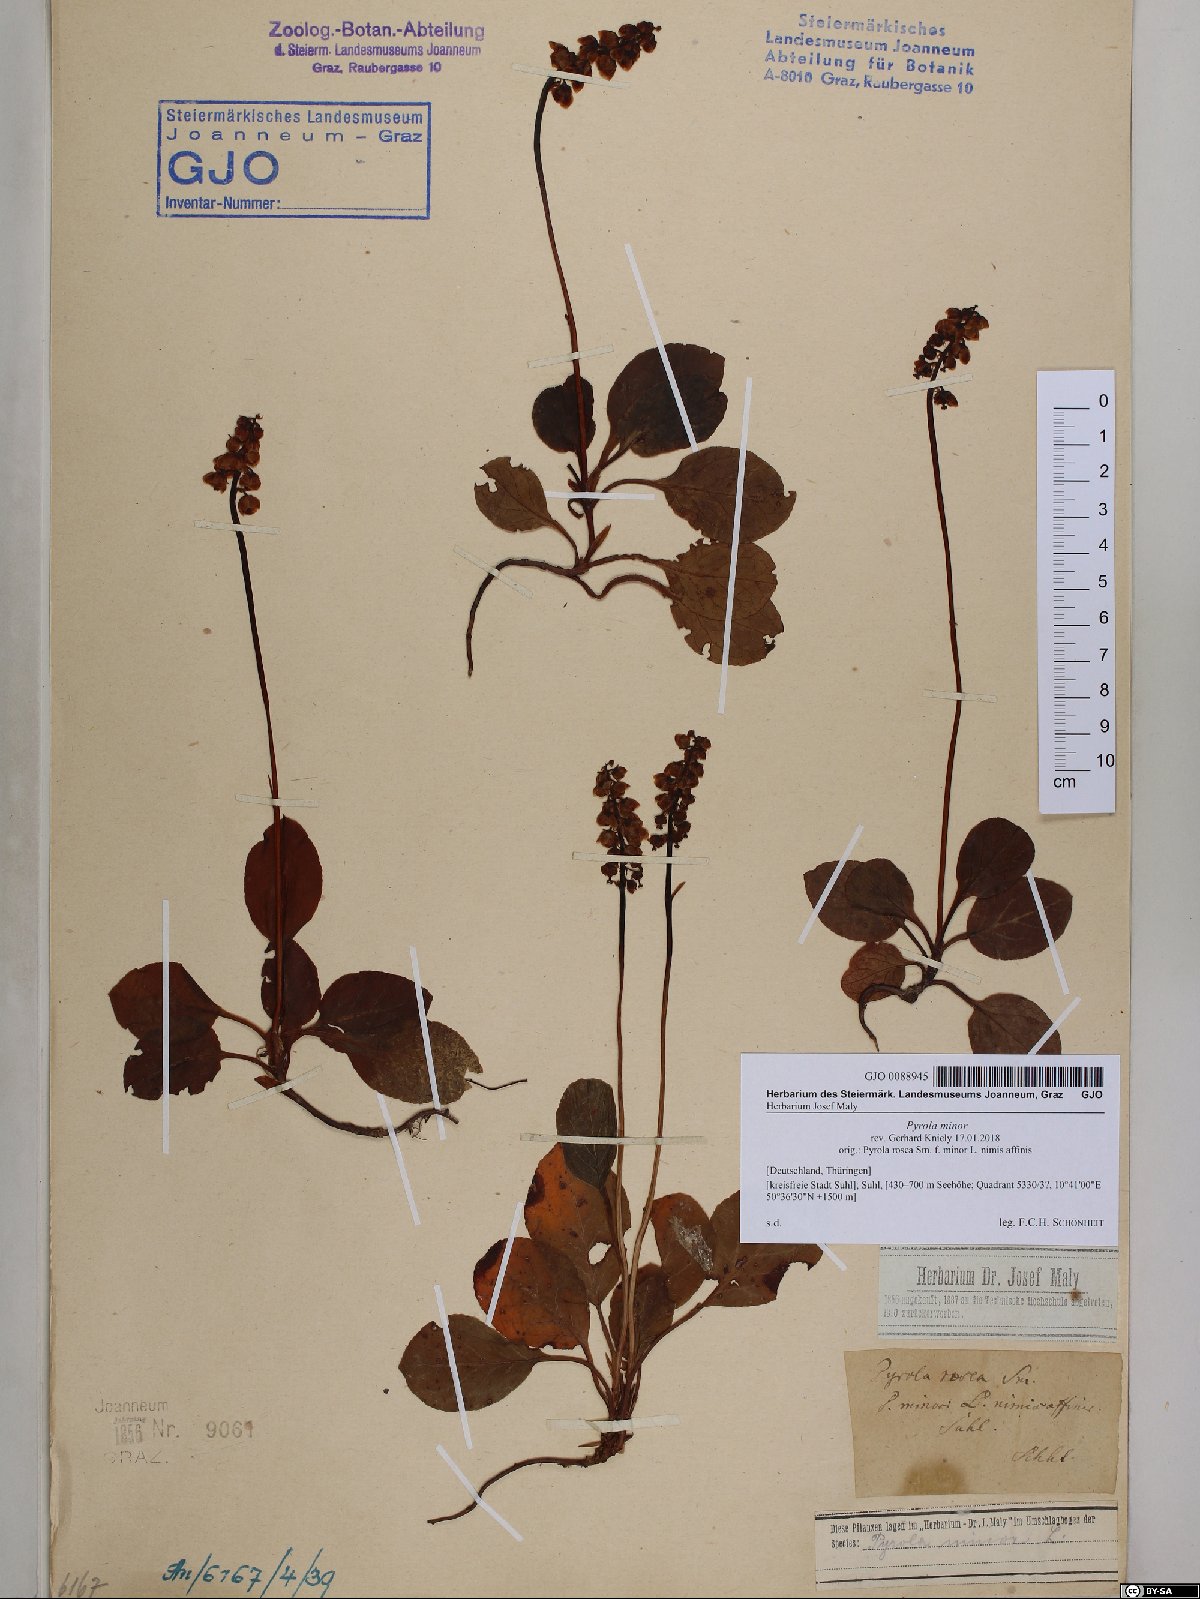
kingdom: Plantae
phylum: Tracheophyta
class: Magnoliopsida
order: Ericales
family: Ericaceae
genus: Pyrola
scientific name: Pyrola minor
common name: Common wintergreen
